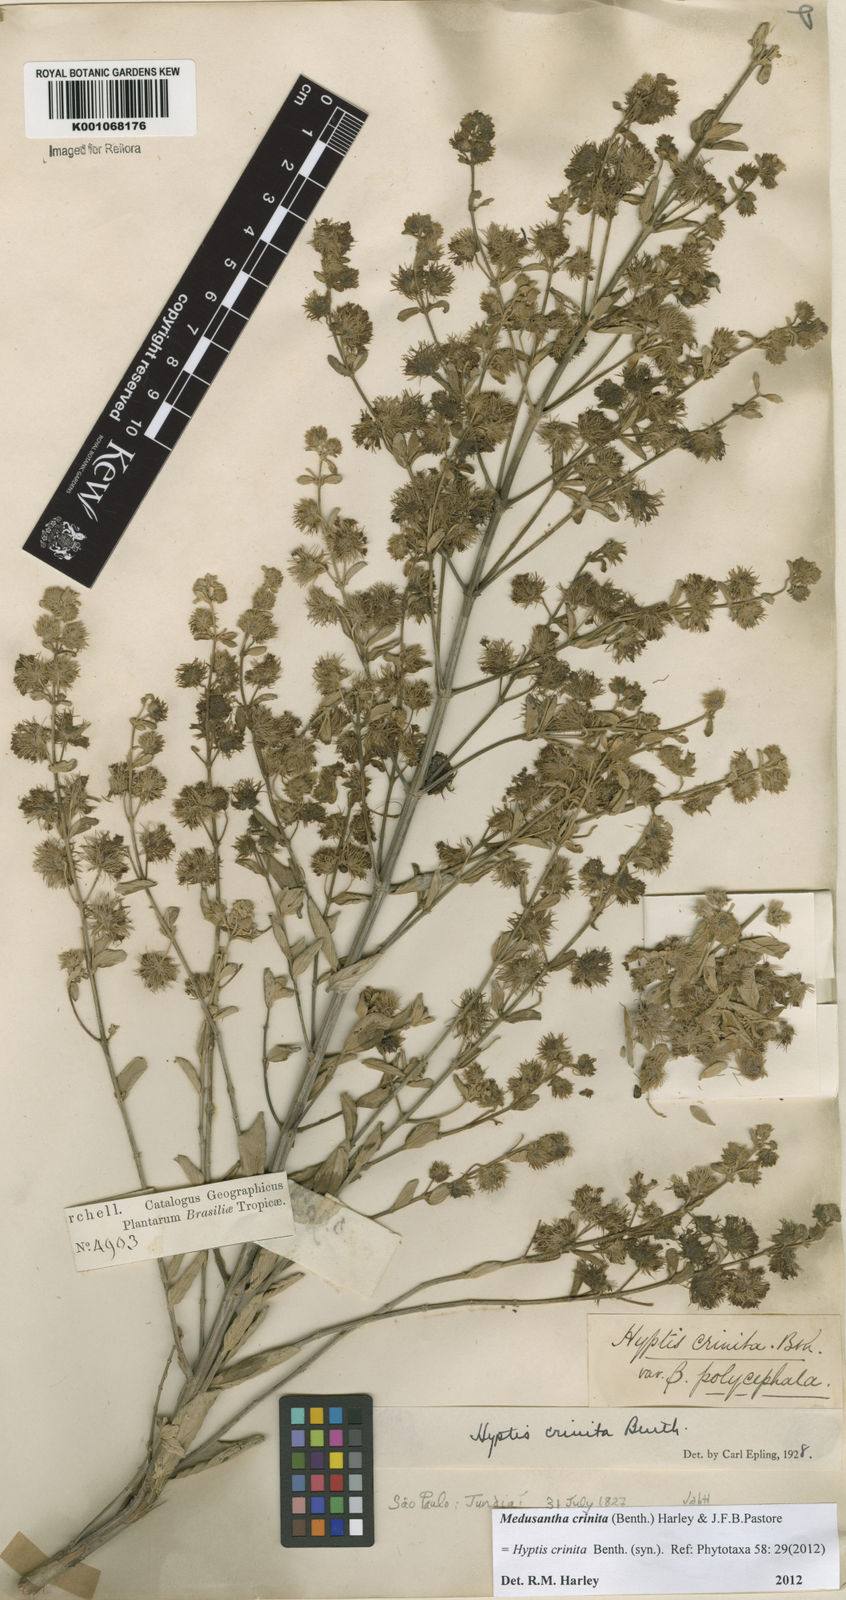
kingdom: Plantae
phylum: Tracheophyta
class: Magnoliopsida
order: Lamiales
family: Lamiaceae
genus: Medusantha
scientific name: Medusantha crinita
